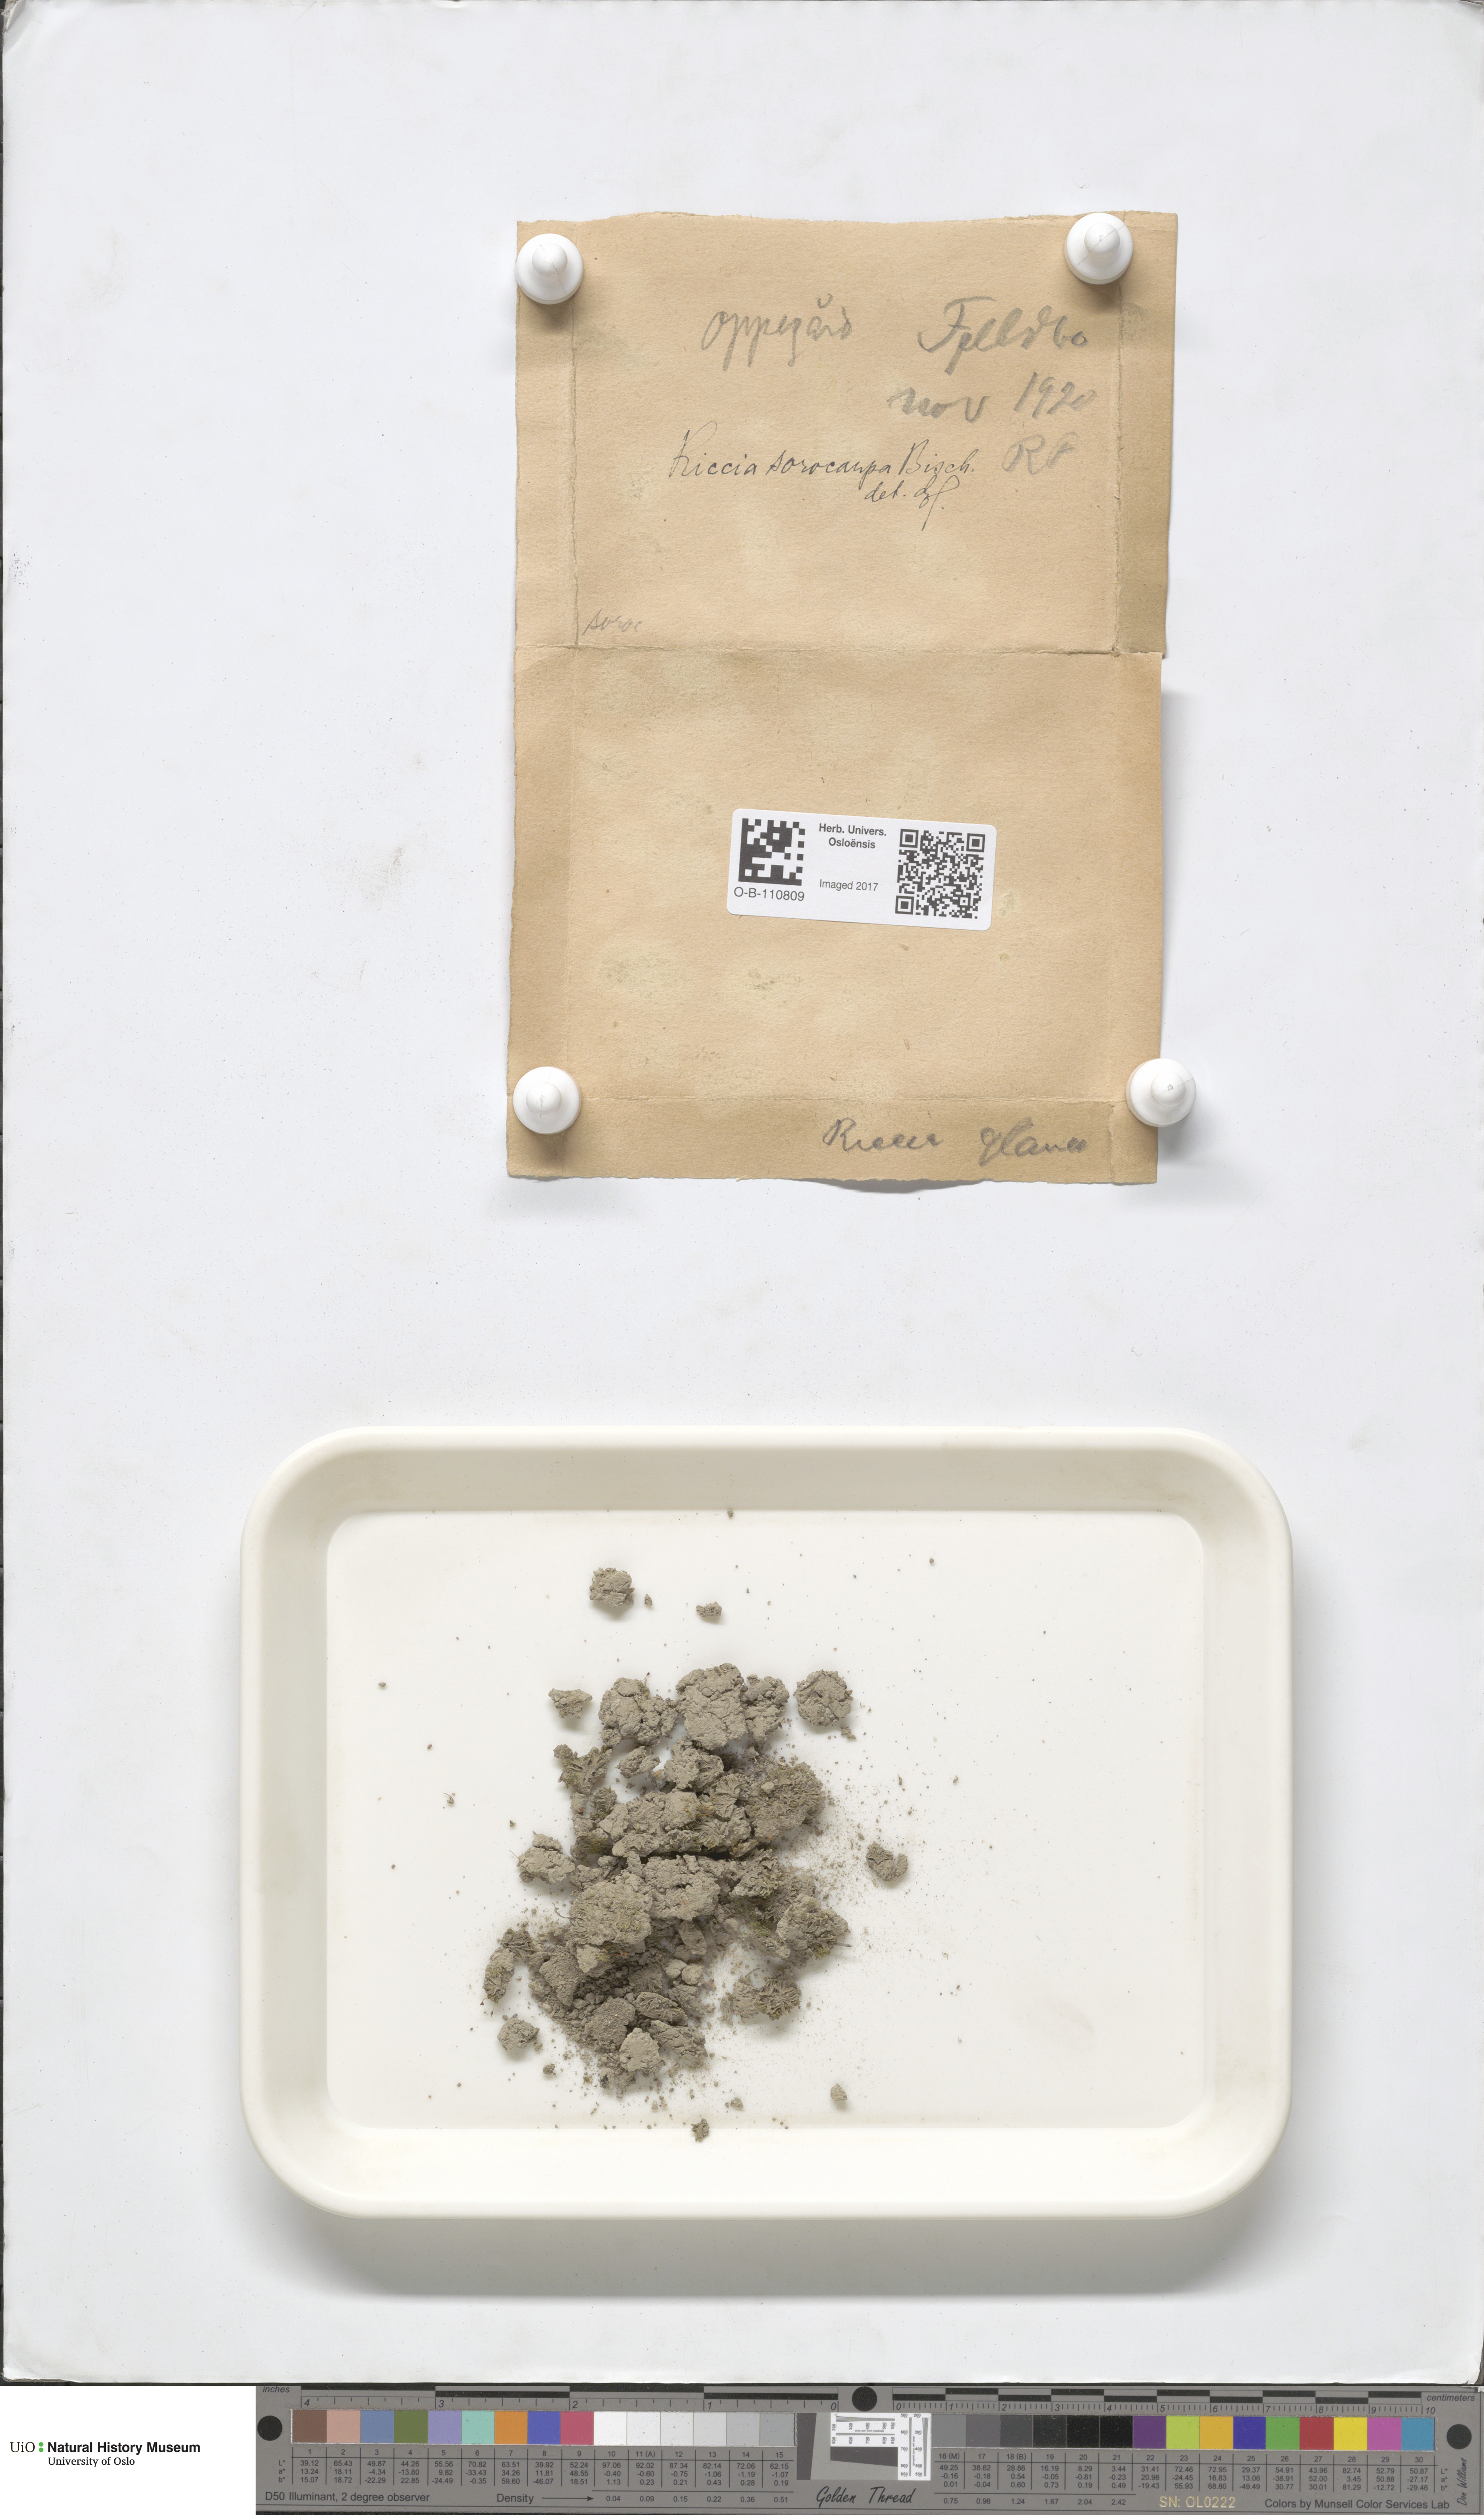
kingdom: Plantae
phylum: Marchantiophyta
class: Marchantiopsida
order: Marchantiales
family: Ricciaceae
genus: Riccia
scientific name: Riccia sorocarpa
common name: Common crystalwort
